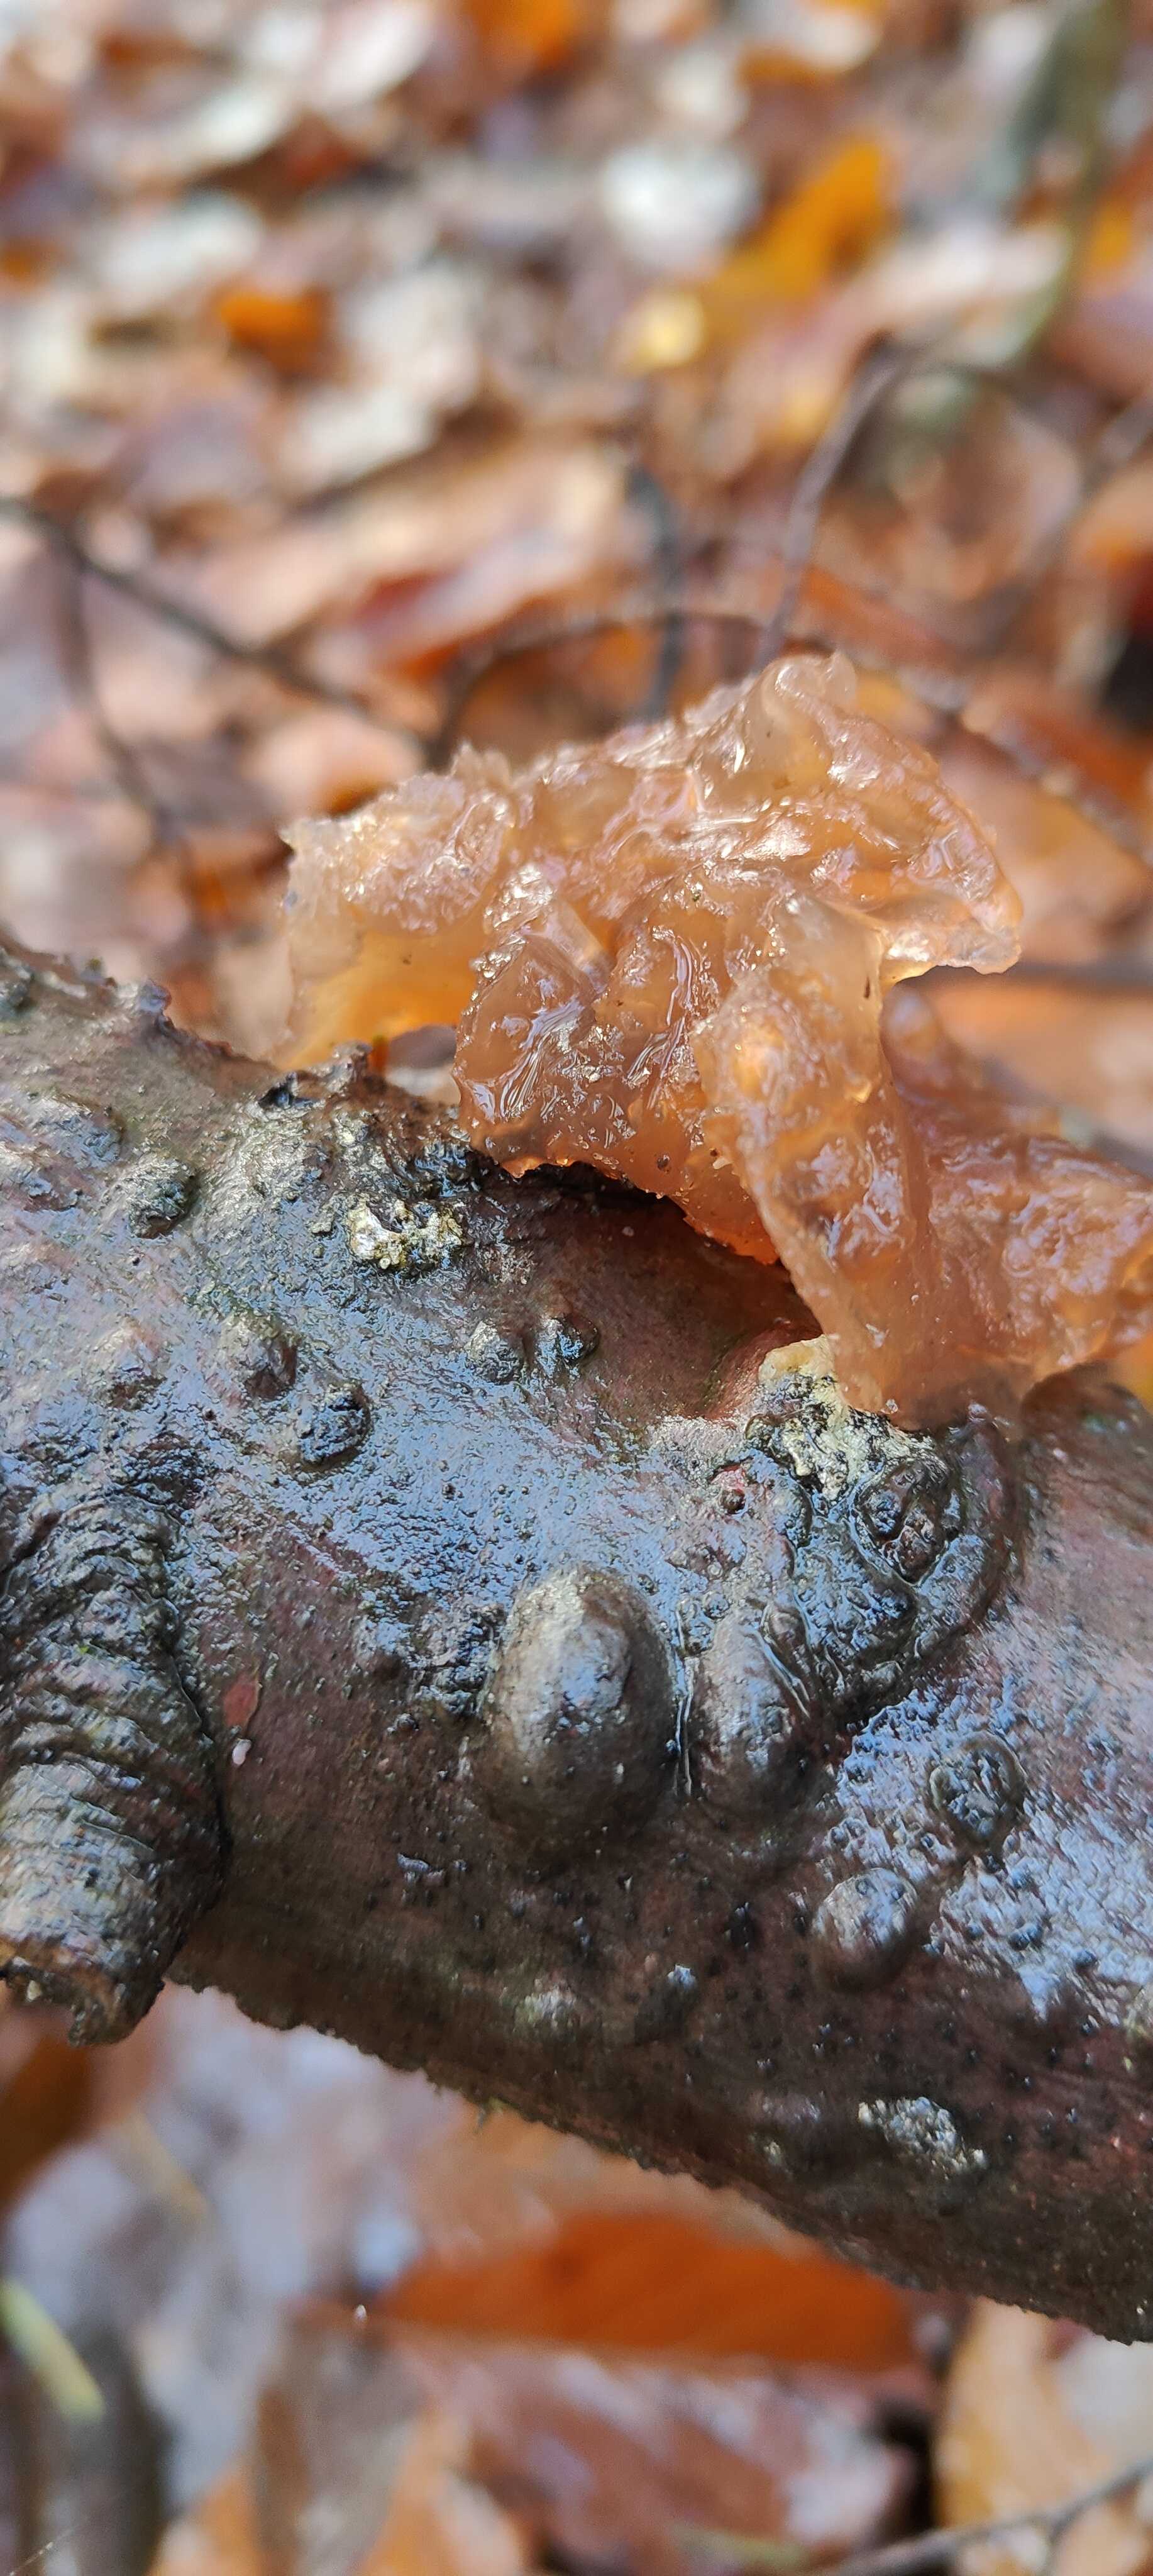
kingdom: Fungi
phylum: Basidiomycota
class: Tremellomycetes
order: Tremellales
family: Tremellaceae
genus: Phaeotremella
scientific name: Phaeotremella frondosa
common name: kæmpe-bævresvamp
